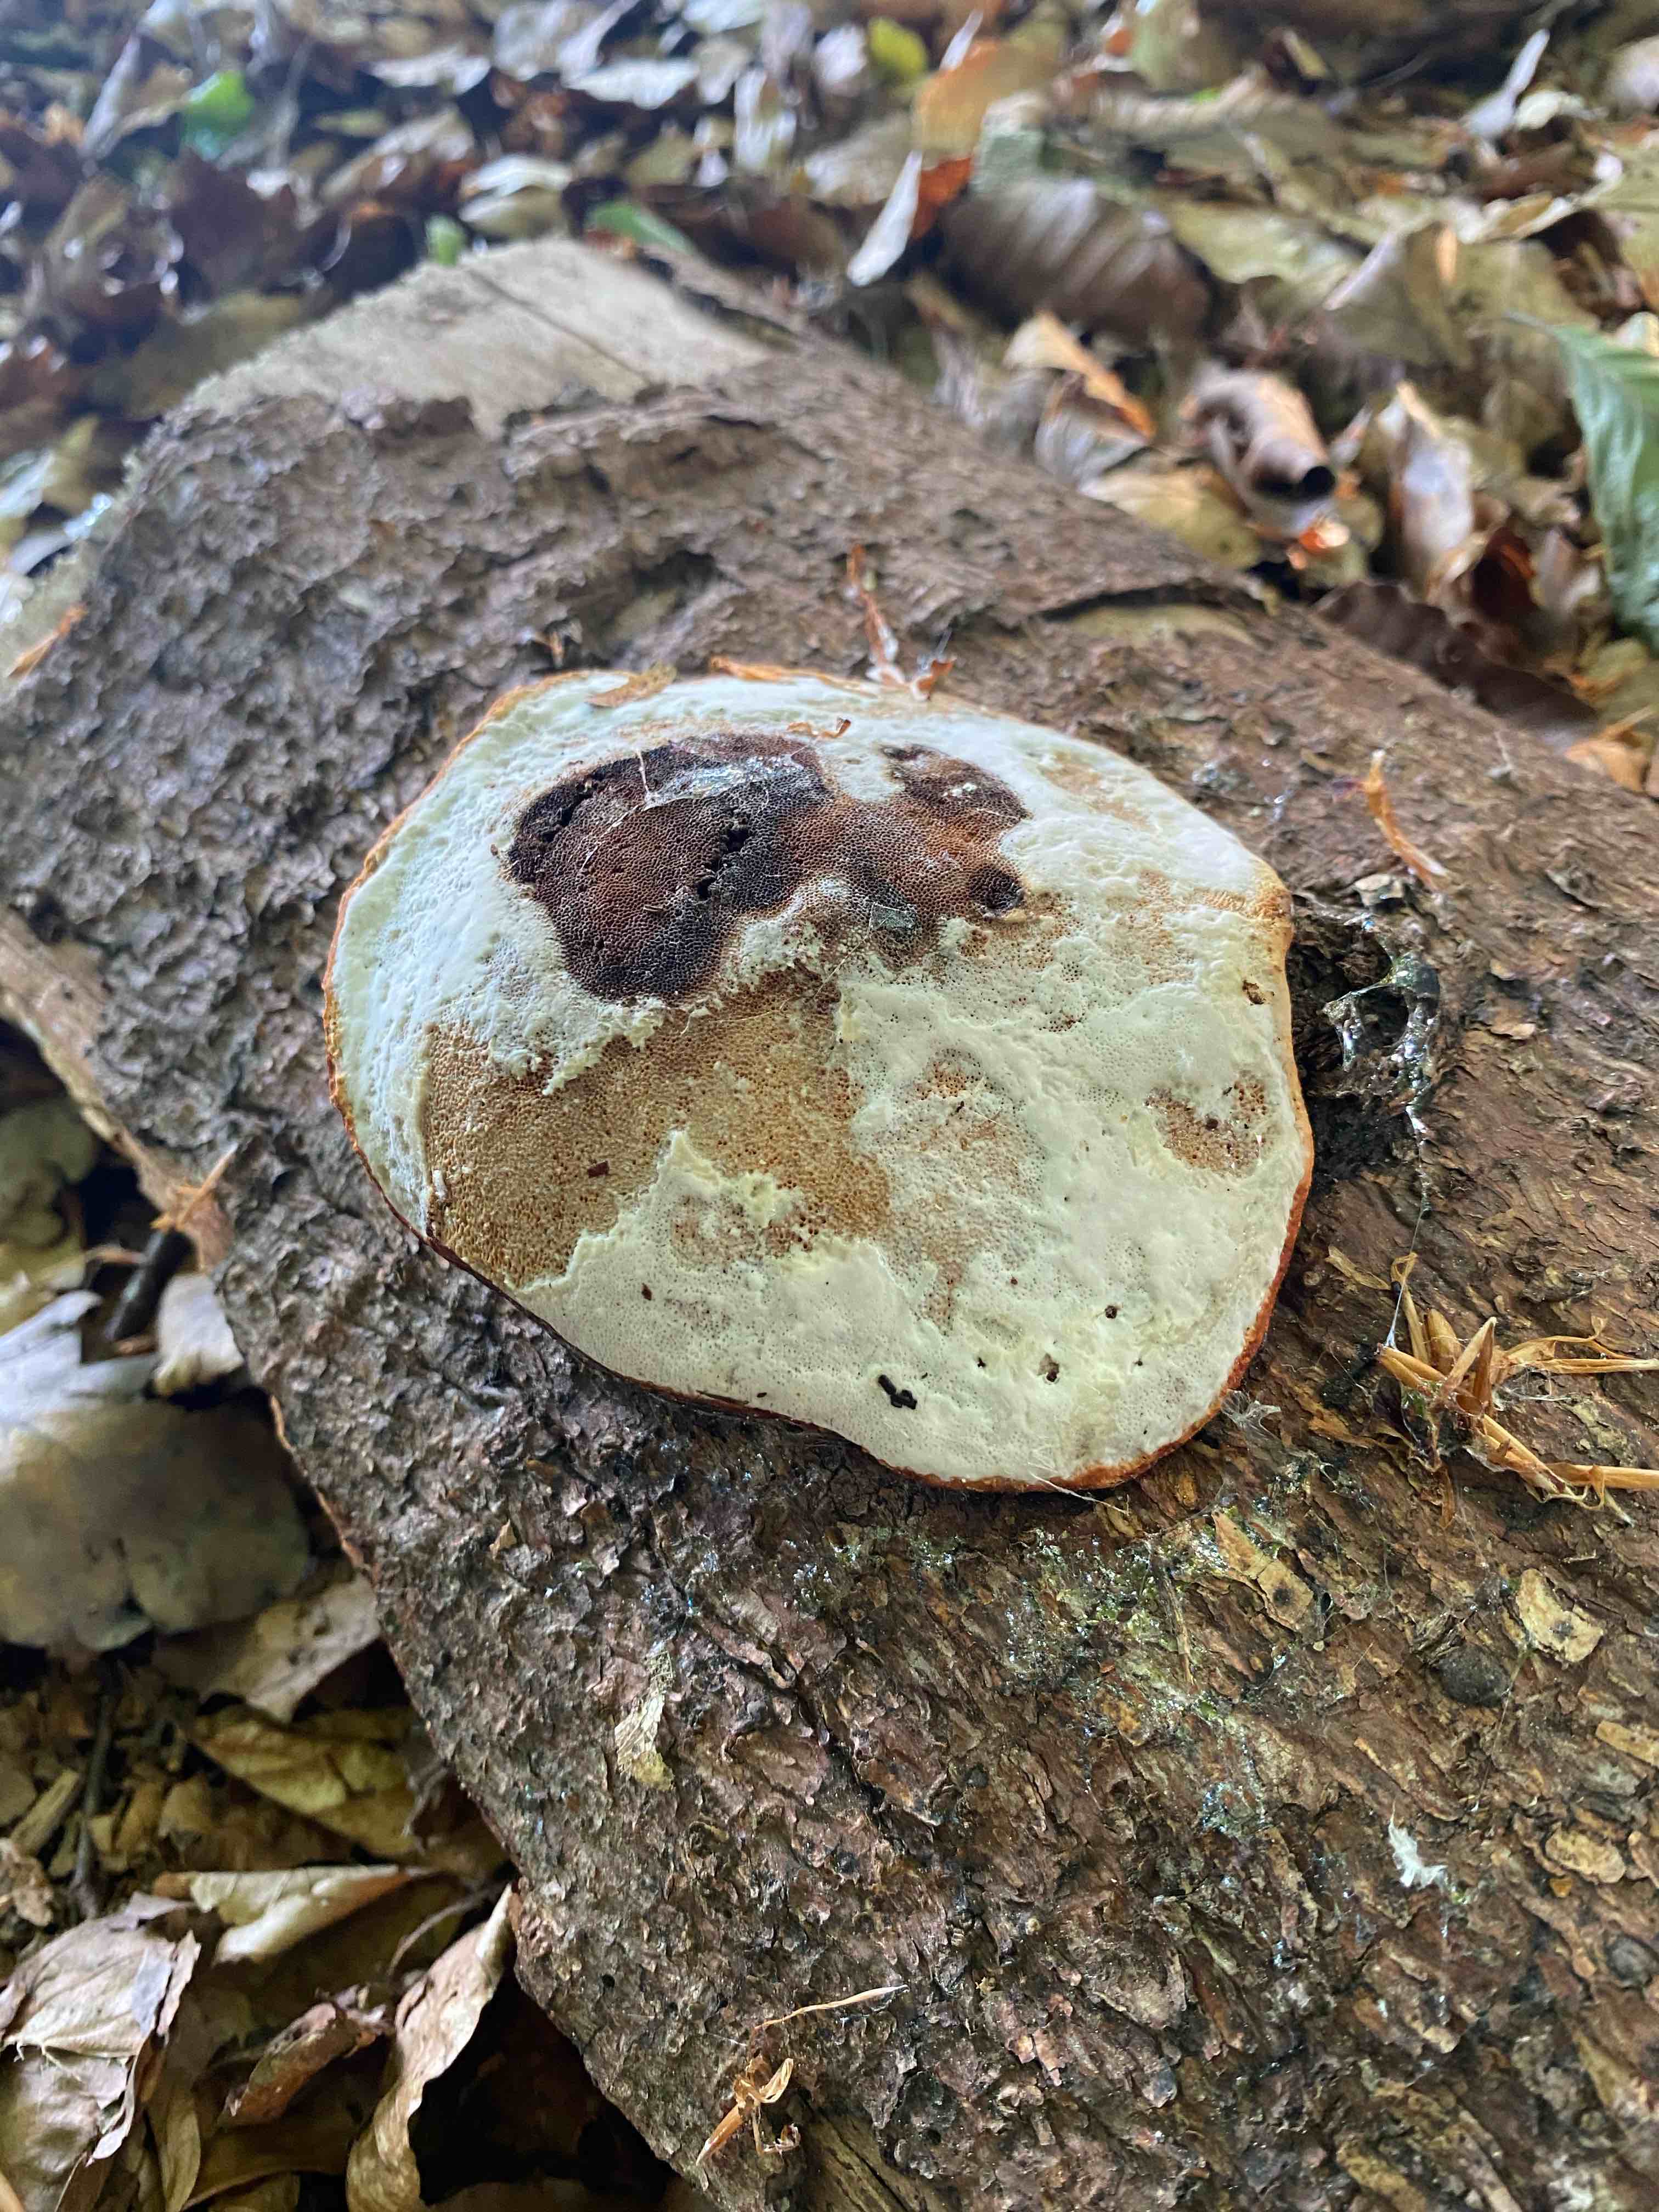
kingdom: Fungi
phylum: Basidiomycota
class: Agaricomycetes
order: Polyporales
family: Fomitopsidaceae
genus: Fomitopsis
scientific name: Fomitopsis pinicola
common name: randbæltet hovporesvamp
